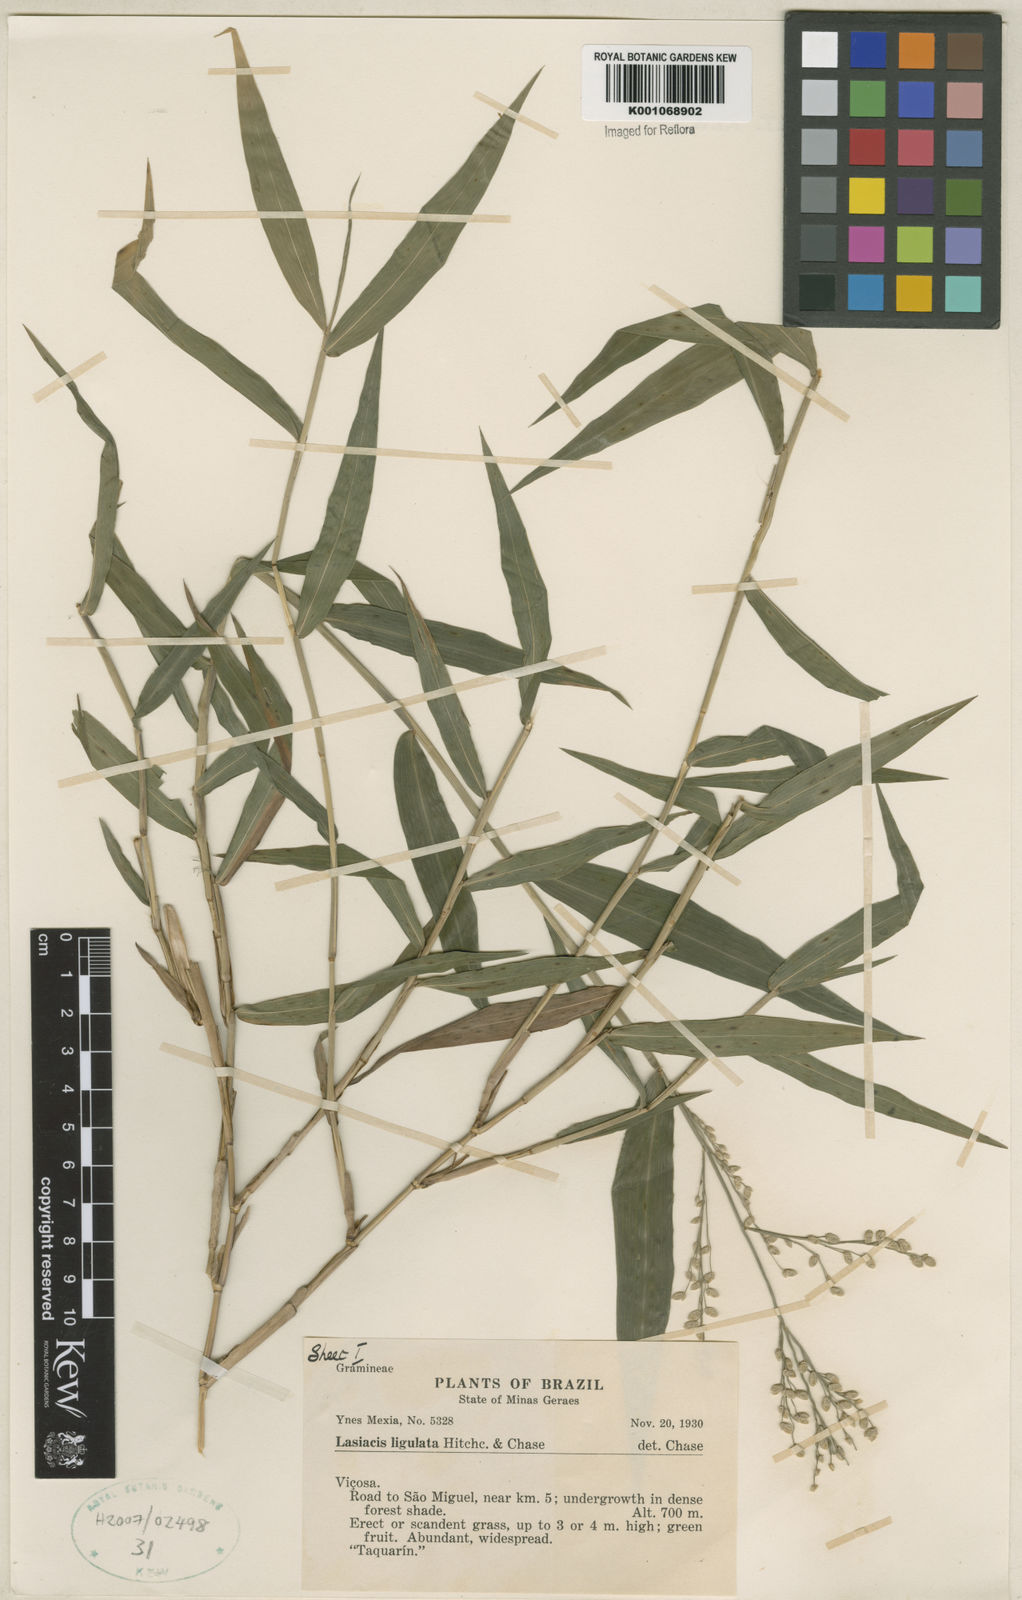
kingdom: Plantae
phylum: Tracheophyta
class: Liliopsida
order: Poales
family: Poaceae
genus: Lasiacis
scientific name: Lasiacis ligulata
